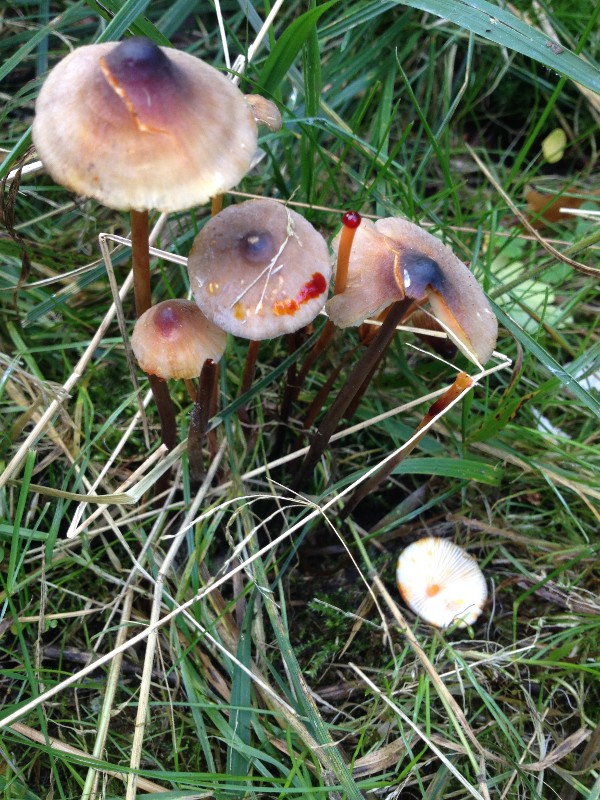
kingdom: Fungi
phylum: Basidiomycota
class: Agaricomycetes
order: Agaricales
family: Mycenaceae
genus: Mycena
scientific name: Mycena crocata
